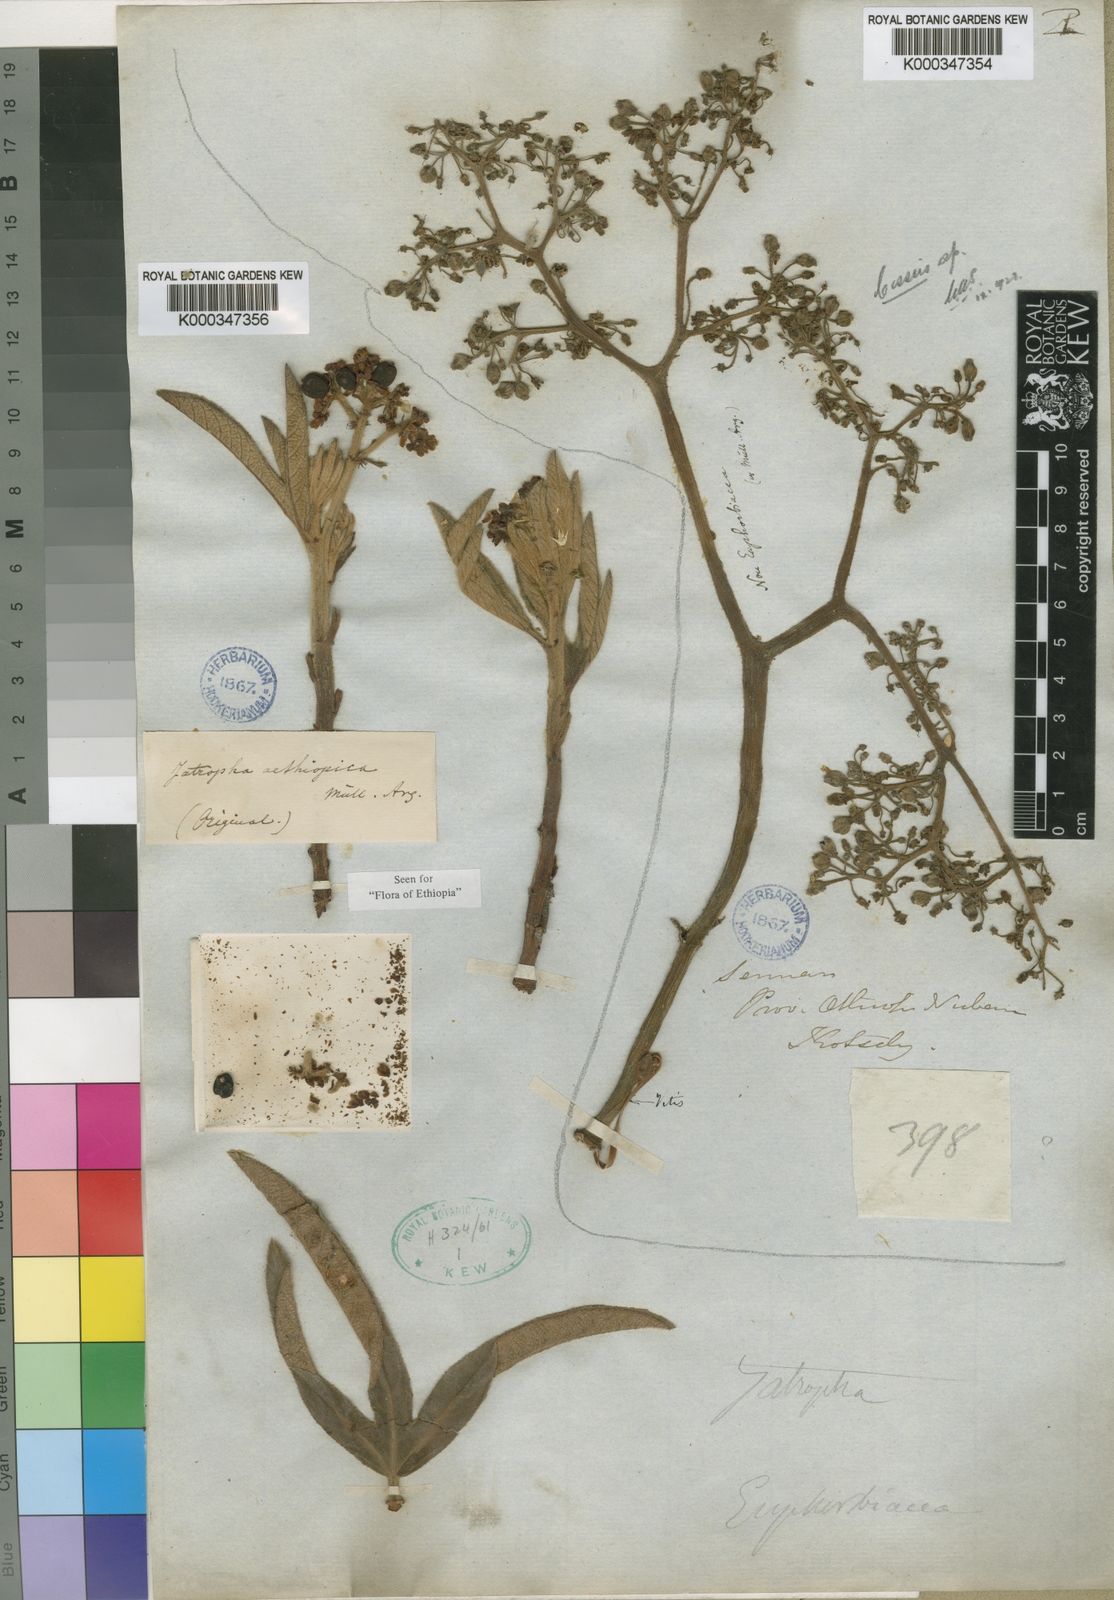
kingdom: Plantae
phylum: Tracheophyta
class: Magnoliopsida
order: Malpighiales
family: Euphorbiaceae
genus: Jatropha
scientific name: Jatropha
